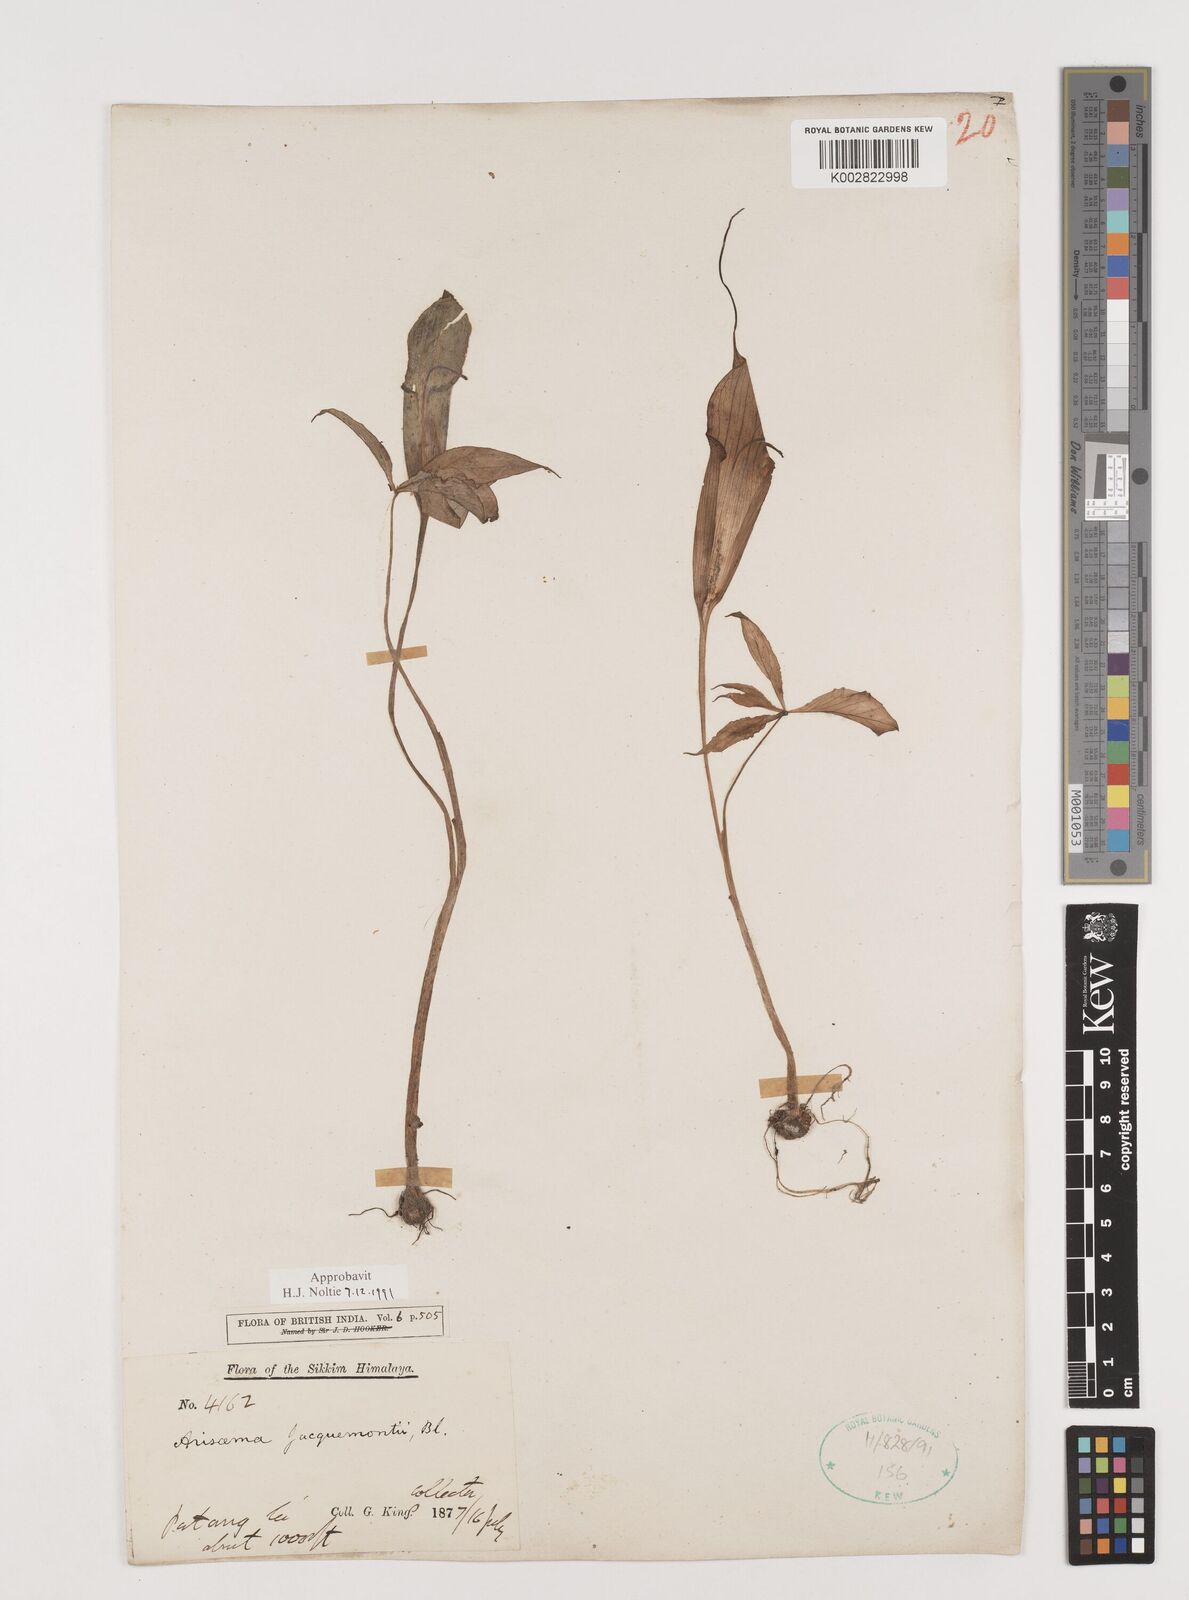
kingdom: Plantae
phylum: Tracheophyta
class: Liliopsida
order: Alismatales
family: Araceae
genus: Arisaema
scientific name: Arisaema jacquemontii
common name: Jacquemont's cobra-lily
